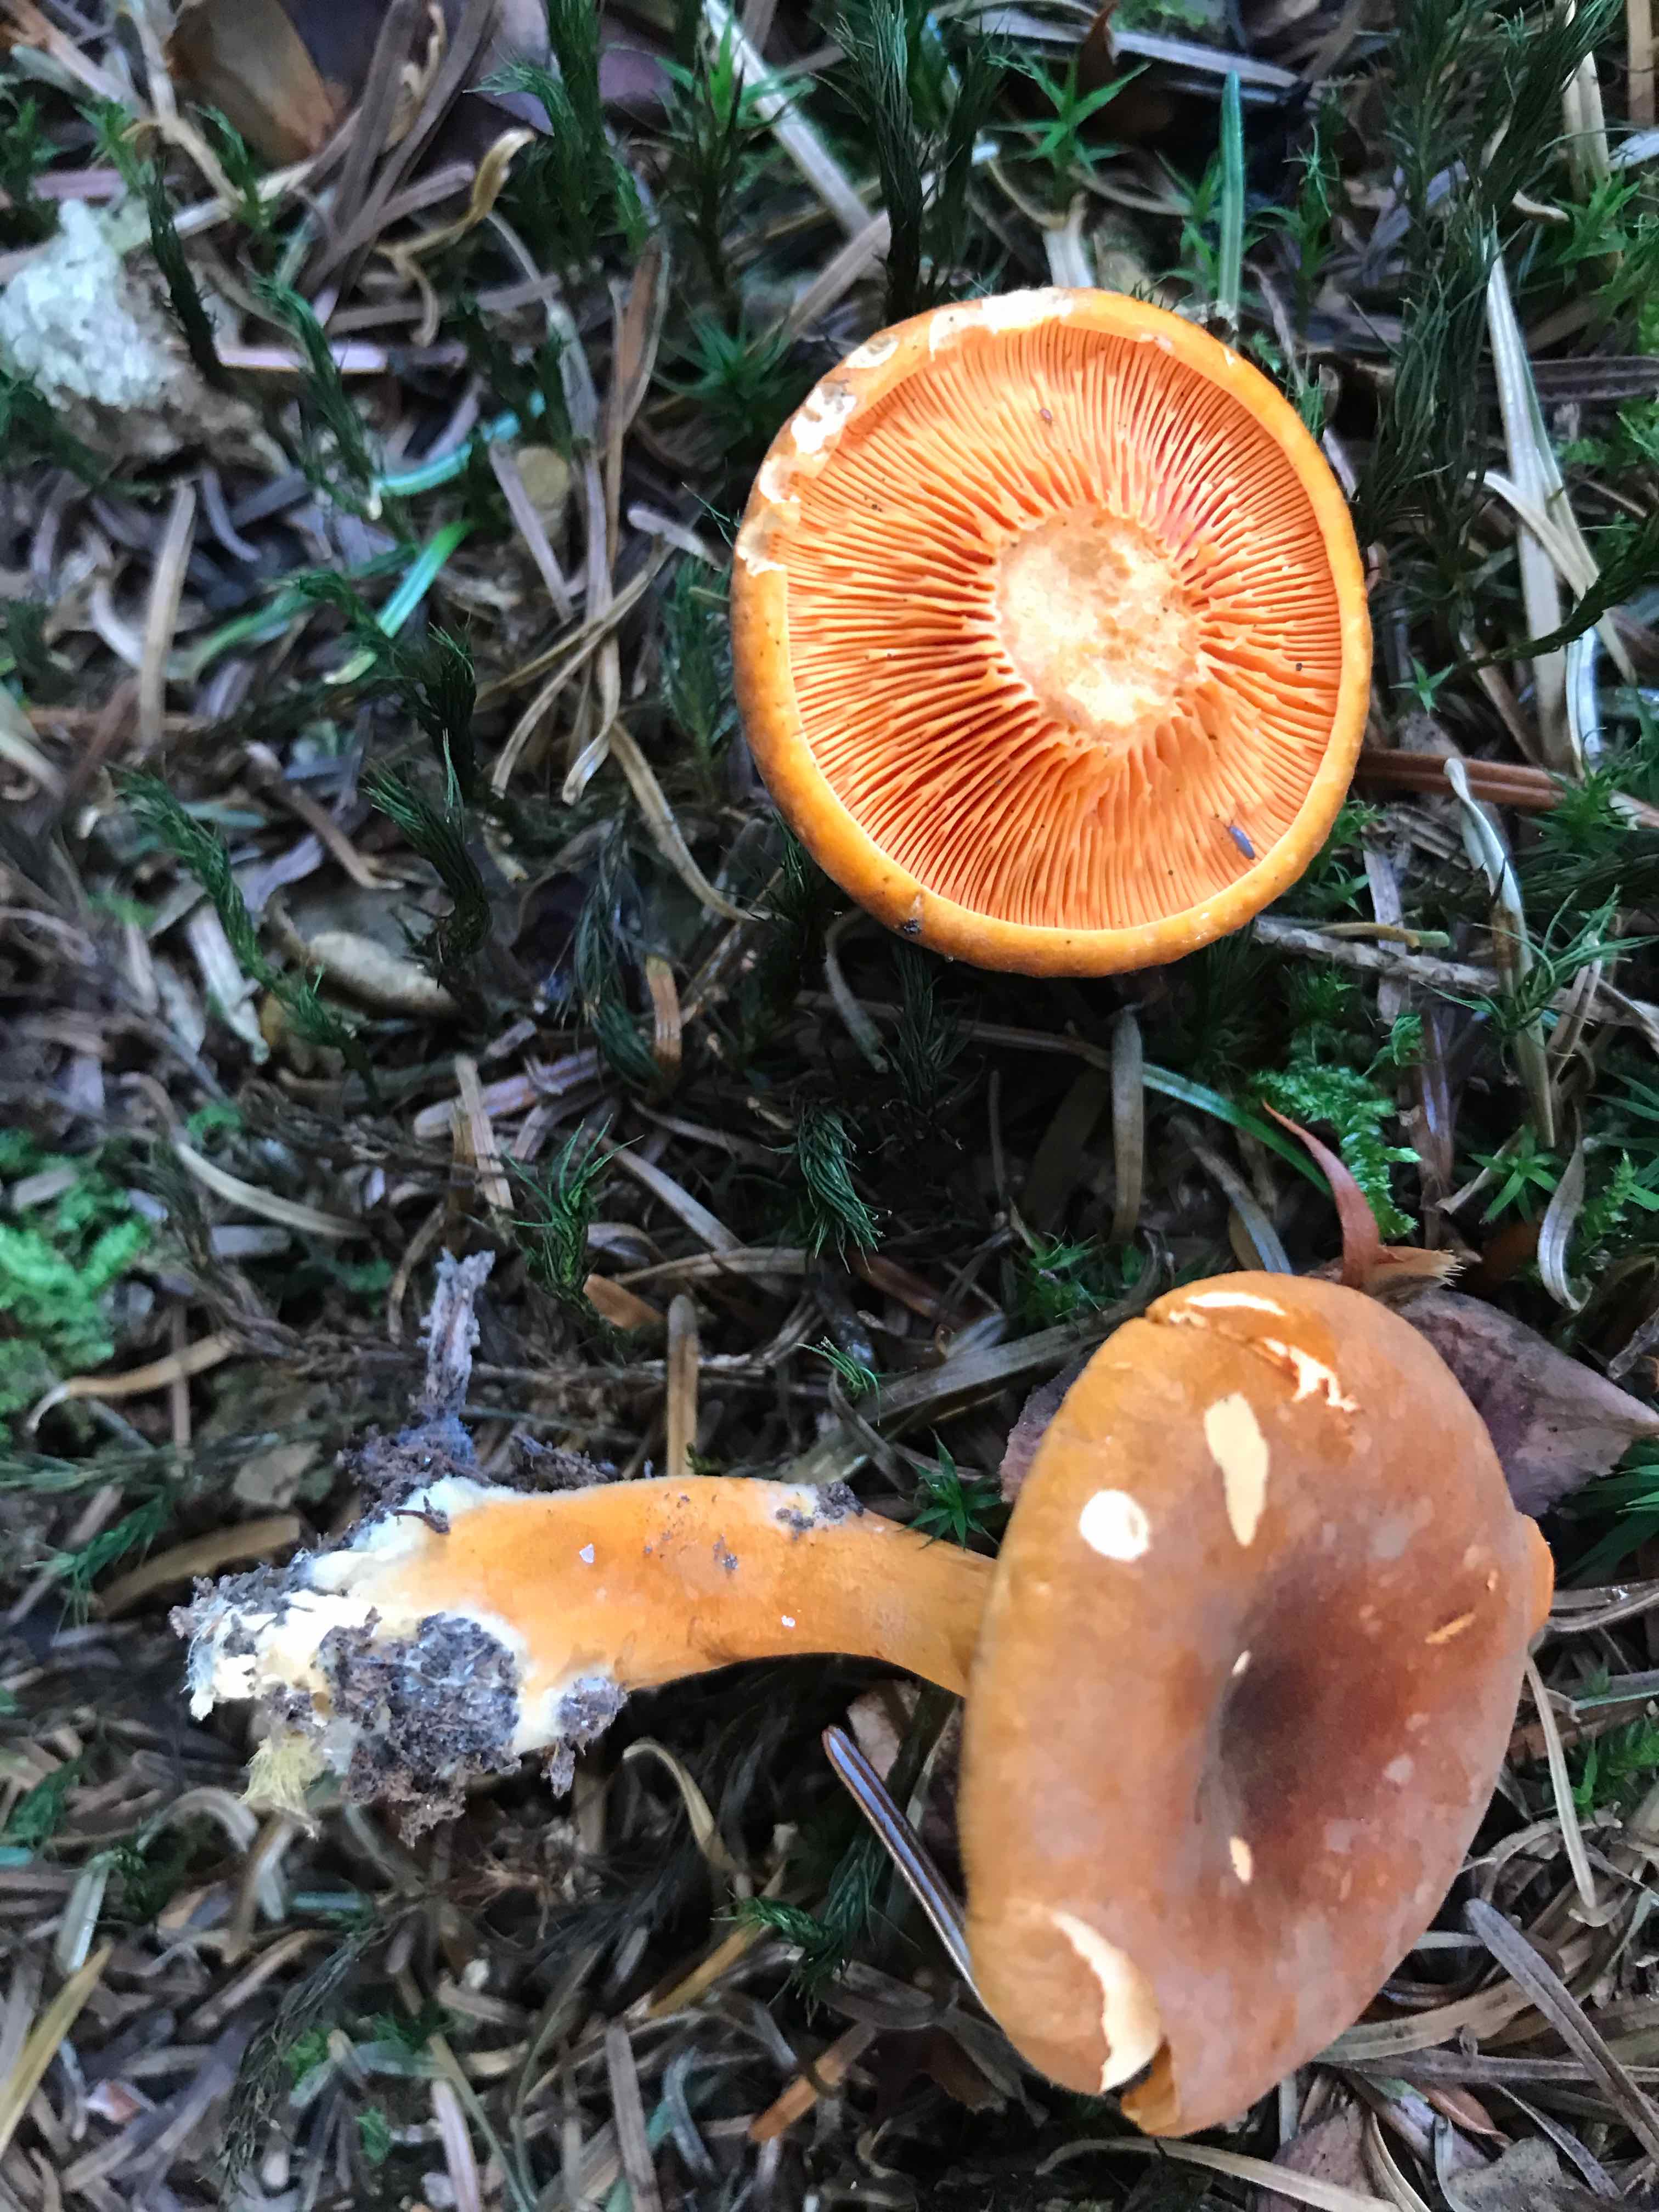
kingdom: Fungi
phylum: Basidiomycota
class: Agaricomycetes
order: Boletales
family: Hygrophoropsidaceae
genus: Hygrophoropsis
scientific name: Hygrophoropsis aurantiaca
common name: almindelig orangekantarel
